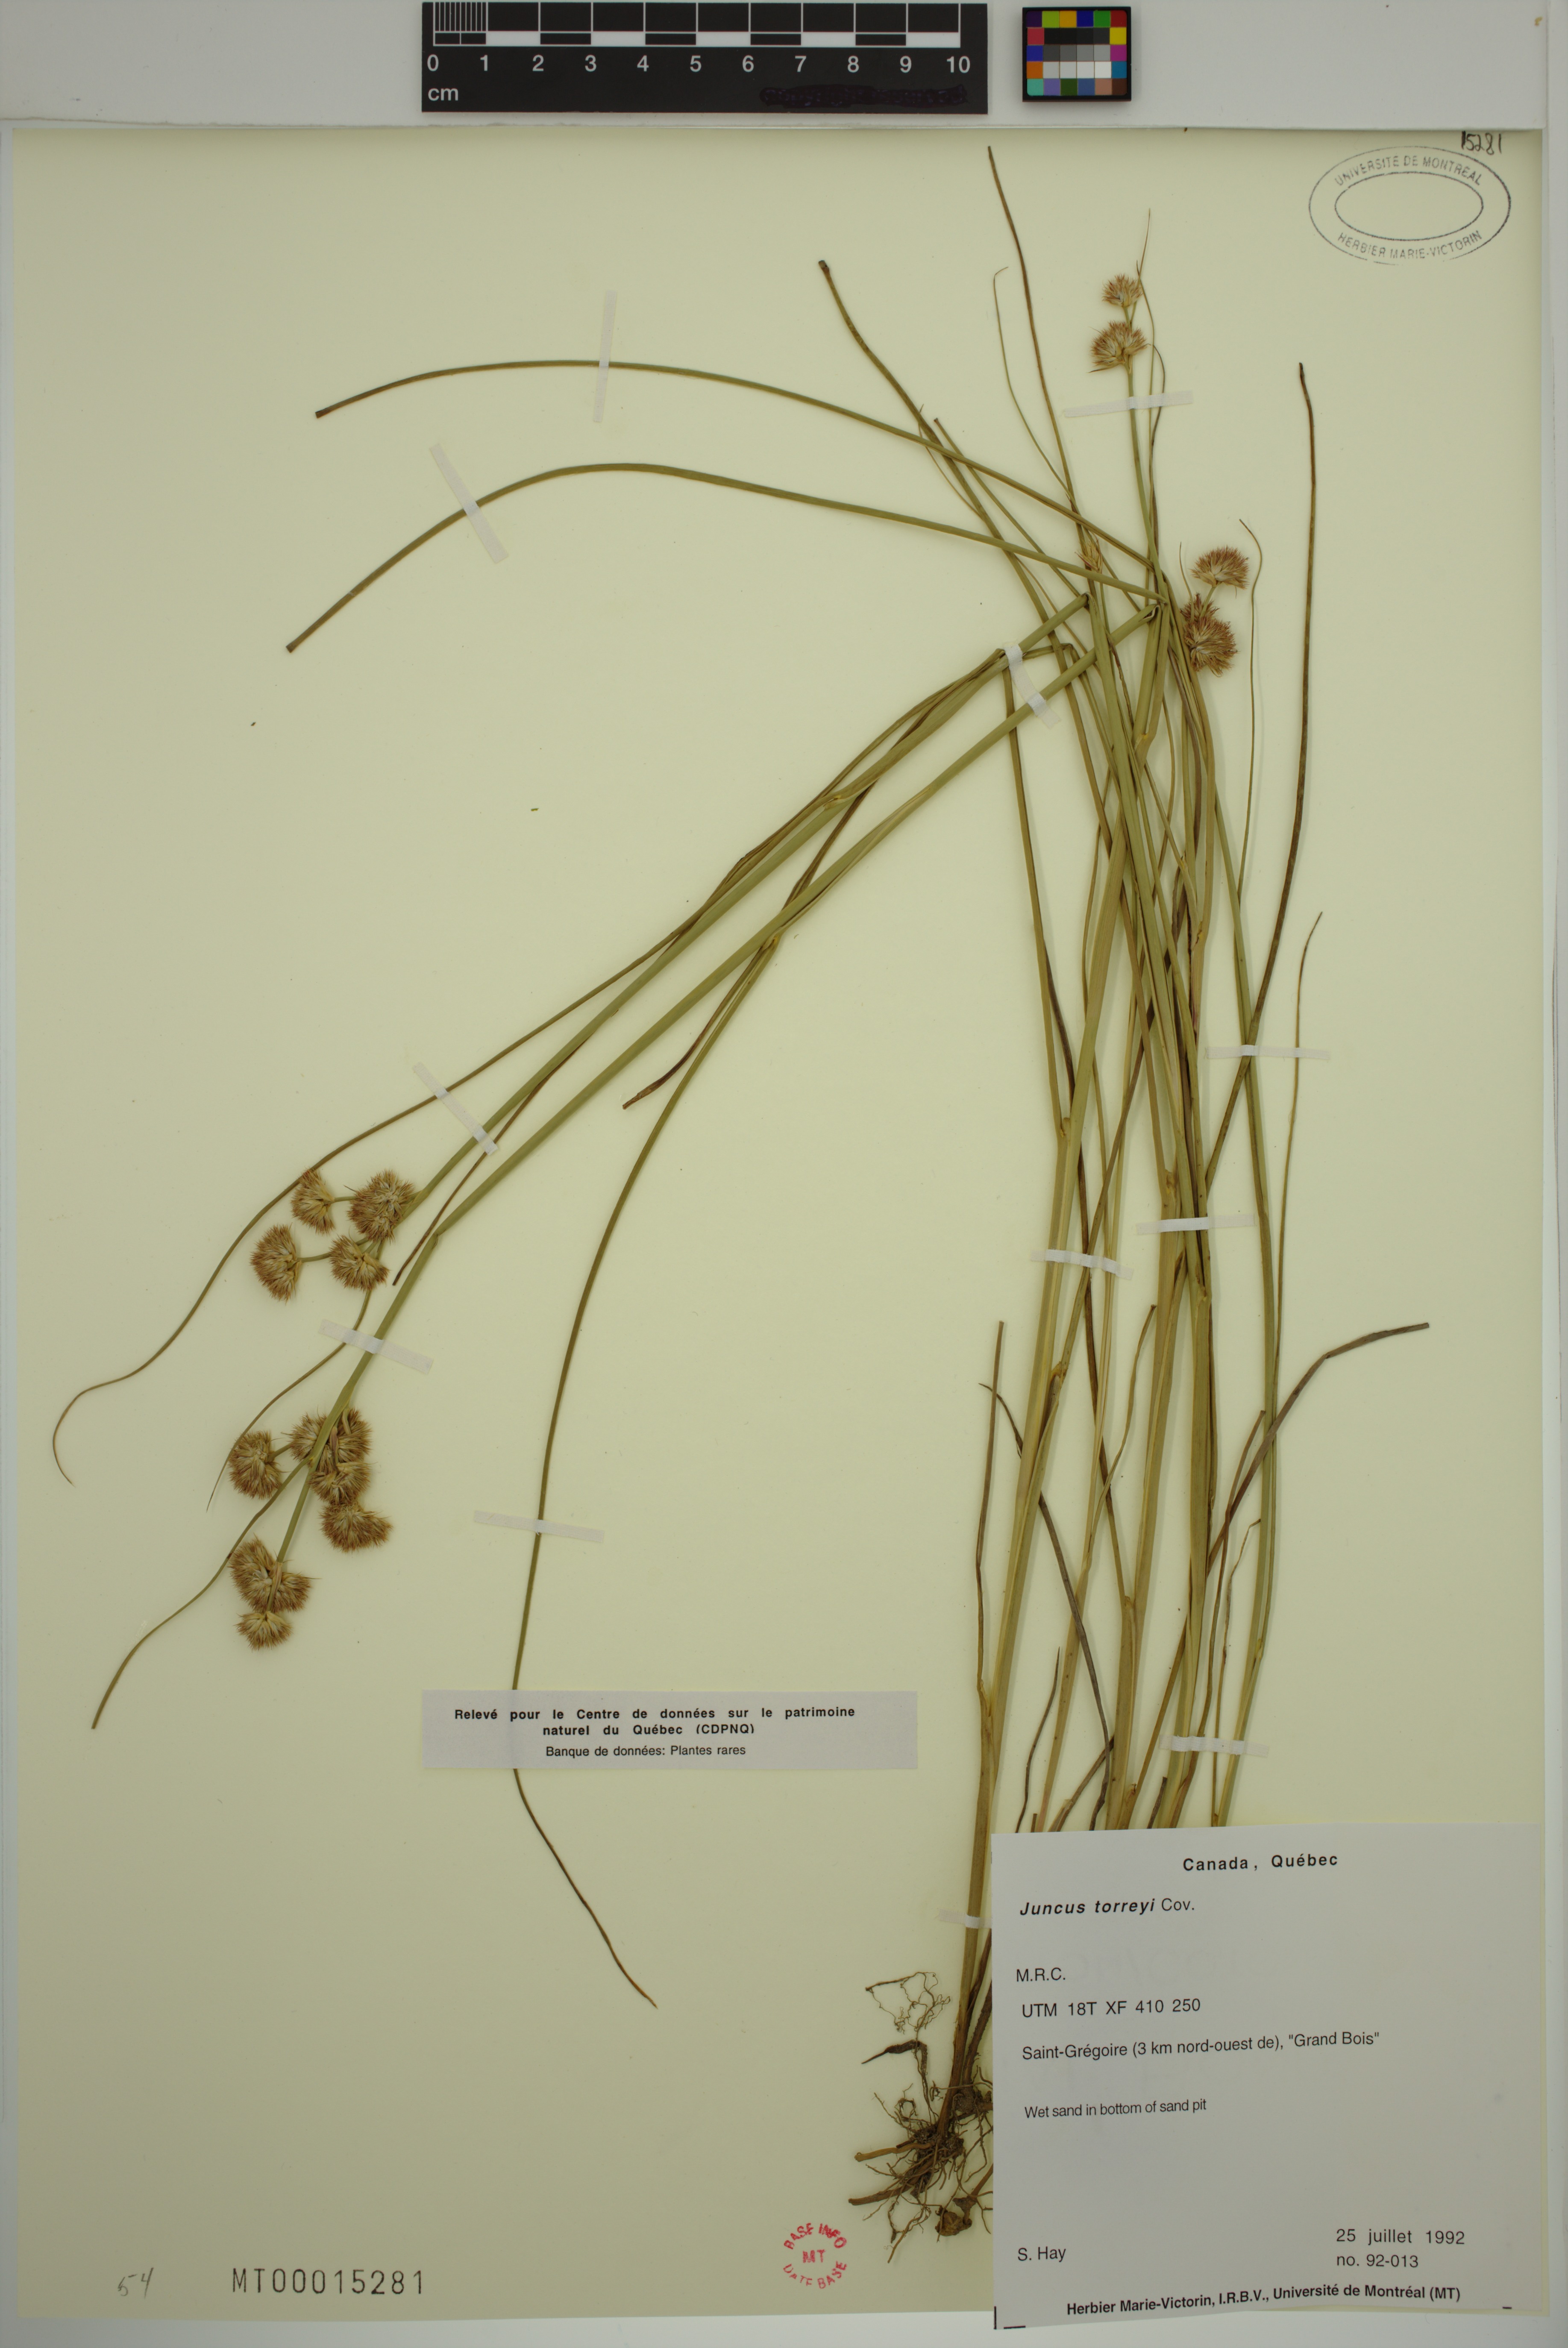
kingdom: Plantae
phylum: Tracheophyta
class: Liliopsida
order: Poales
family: Juncaceae
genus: Juncus
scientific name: Juncus torreyi
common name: Torrey's rush
